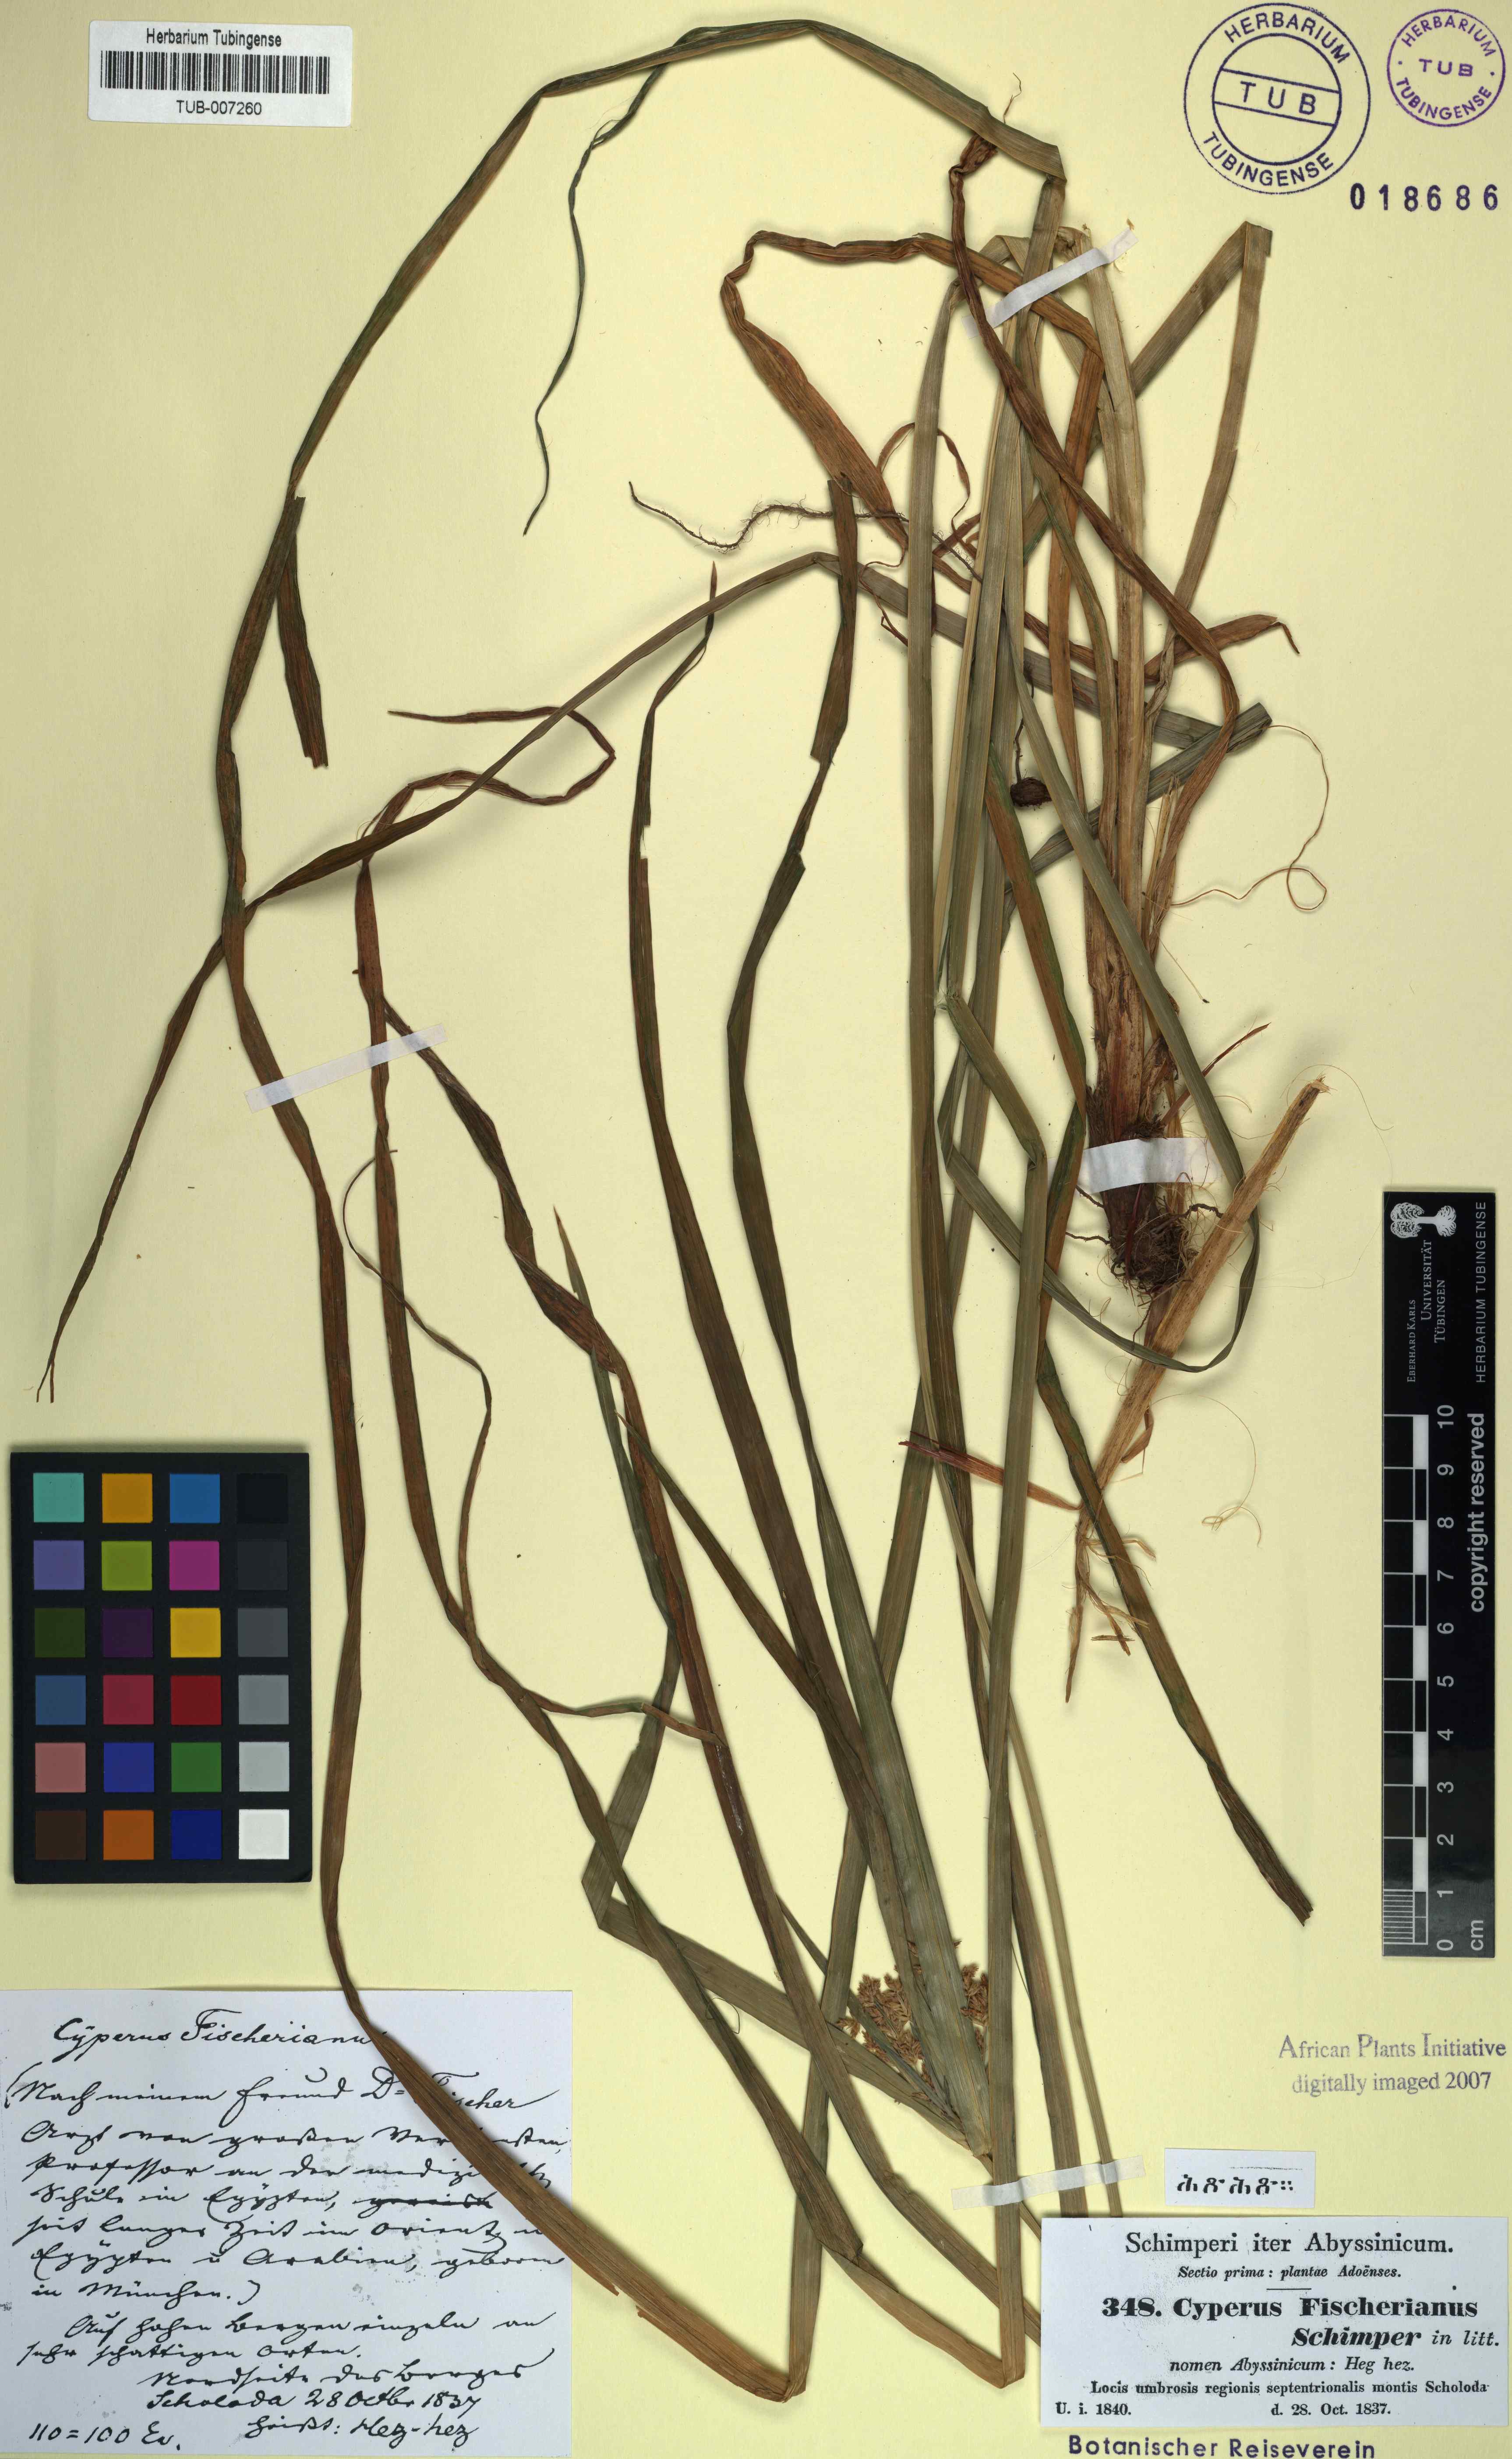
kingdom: Plantae
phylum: Tracheophyta
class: Liliopsida
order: Poales
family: Cyperaceae
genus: Cyperus
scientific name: Cyperus fischerianus
